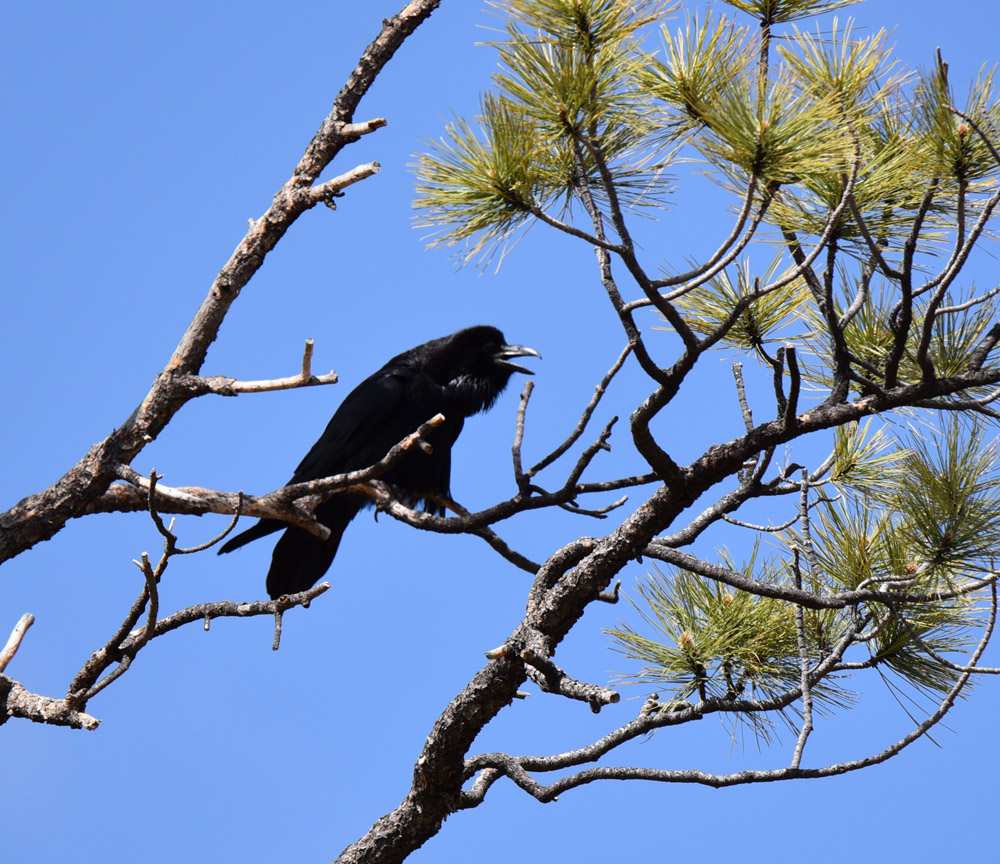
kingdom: Animalia
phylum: Chordata
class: Aves
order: Passeriformes
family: Corvidae
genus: Corvus
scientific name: Corvus corax
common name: Common raven
